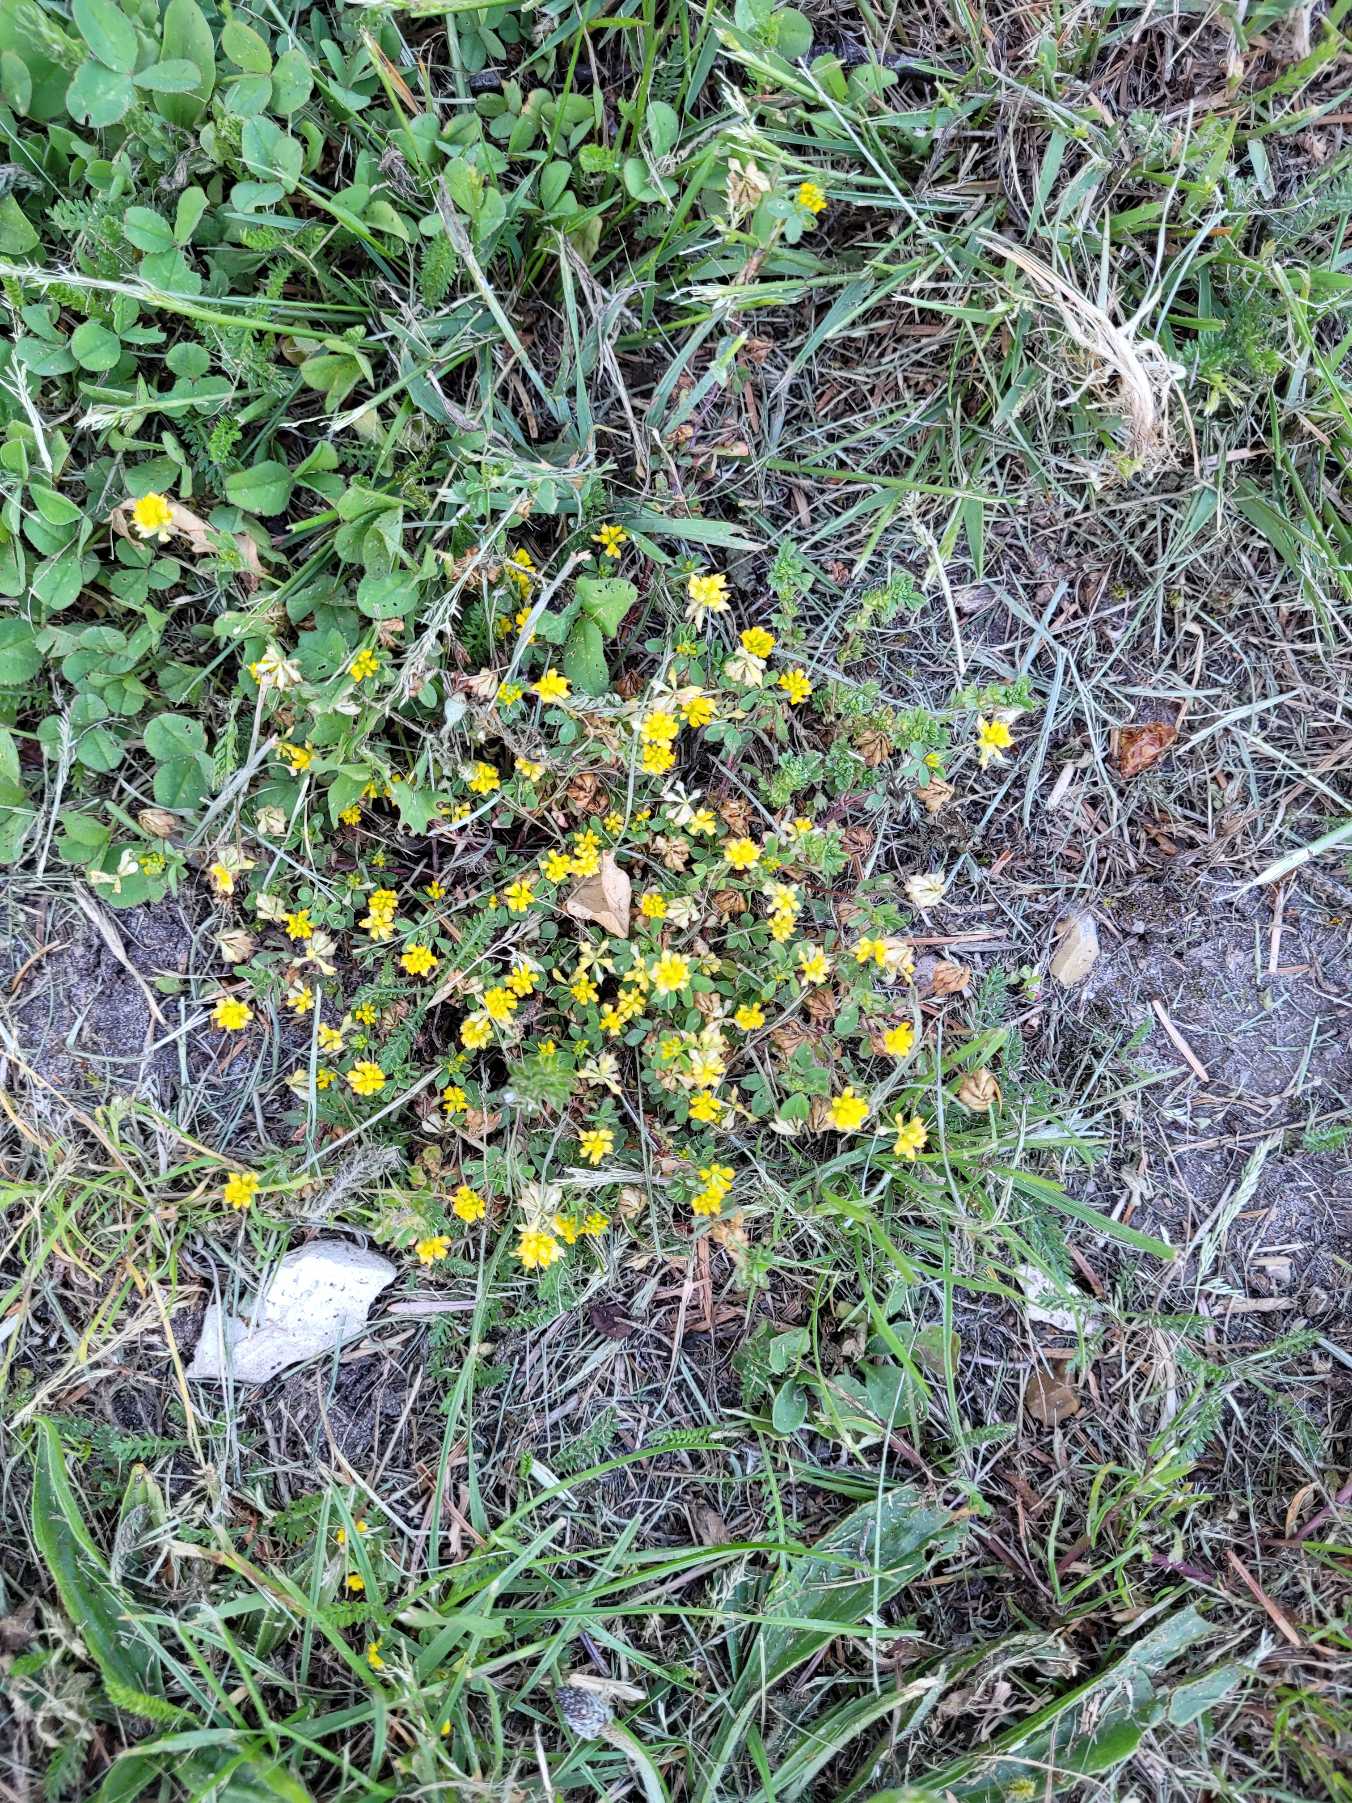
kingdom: Plantae
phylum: Tracheophyta
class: Magnoliopsida
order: Fabales
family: Fabaceae
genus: Trifolium
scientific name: Trifolium dubium
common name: Fin kløver
